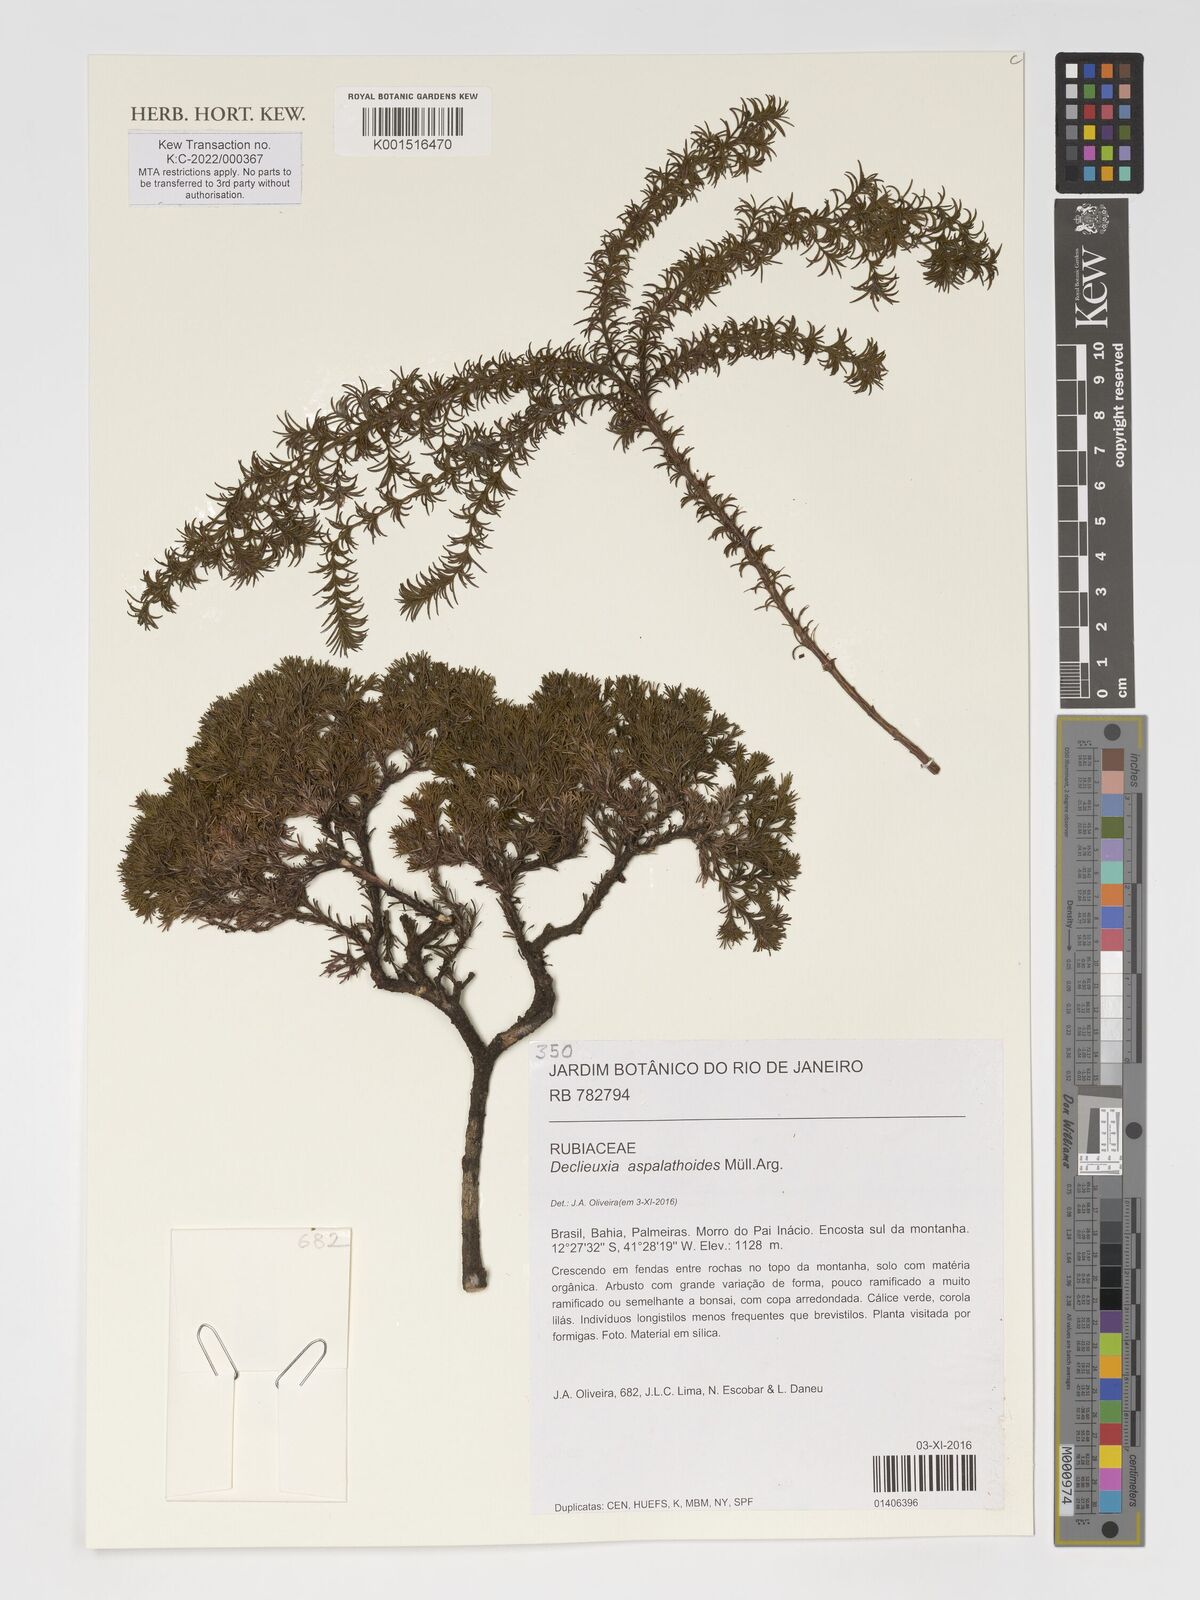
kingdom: Plantae
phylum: Tracheophyta
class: Magnoliopsida
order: Gentianales
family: Rubiaceae
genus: Declieuxia
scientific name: Declieuxia aspalathoides
